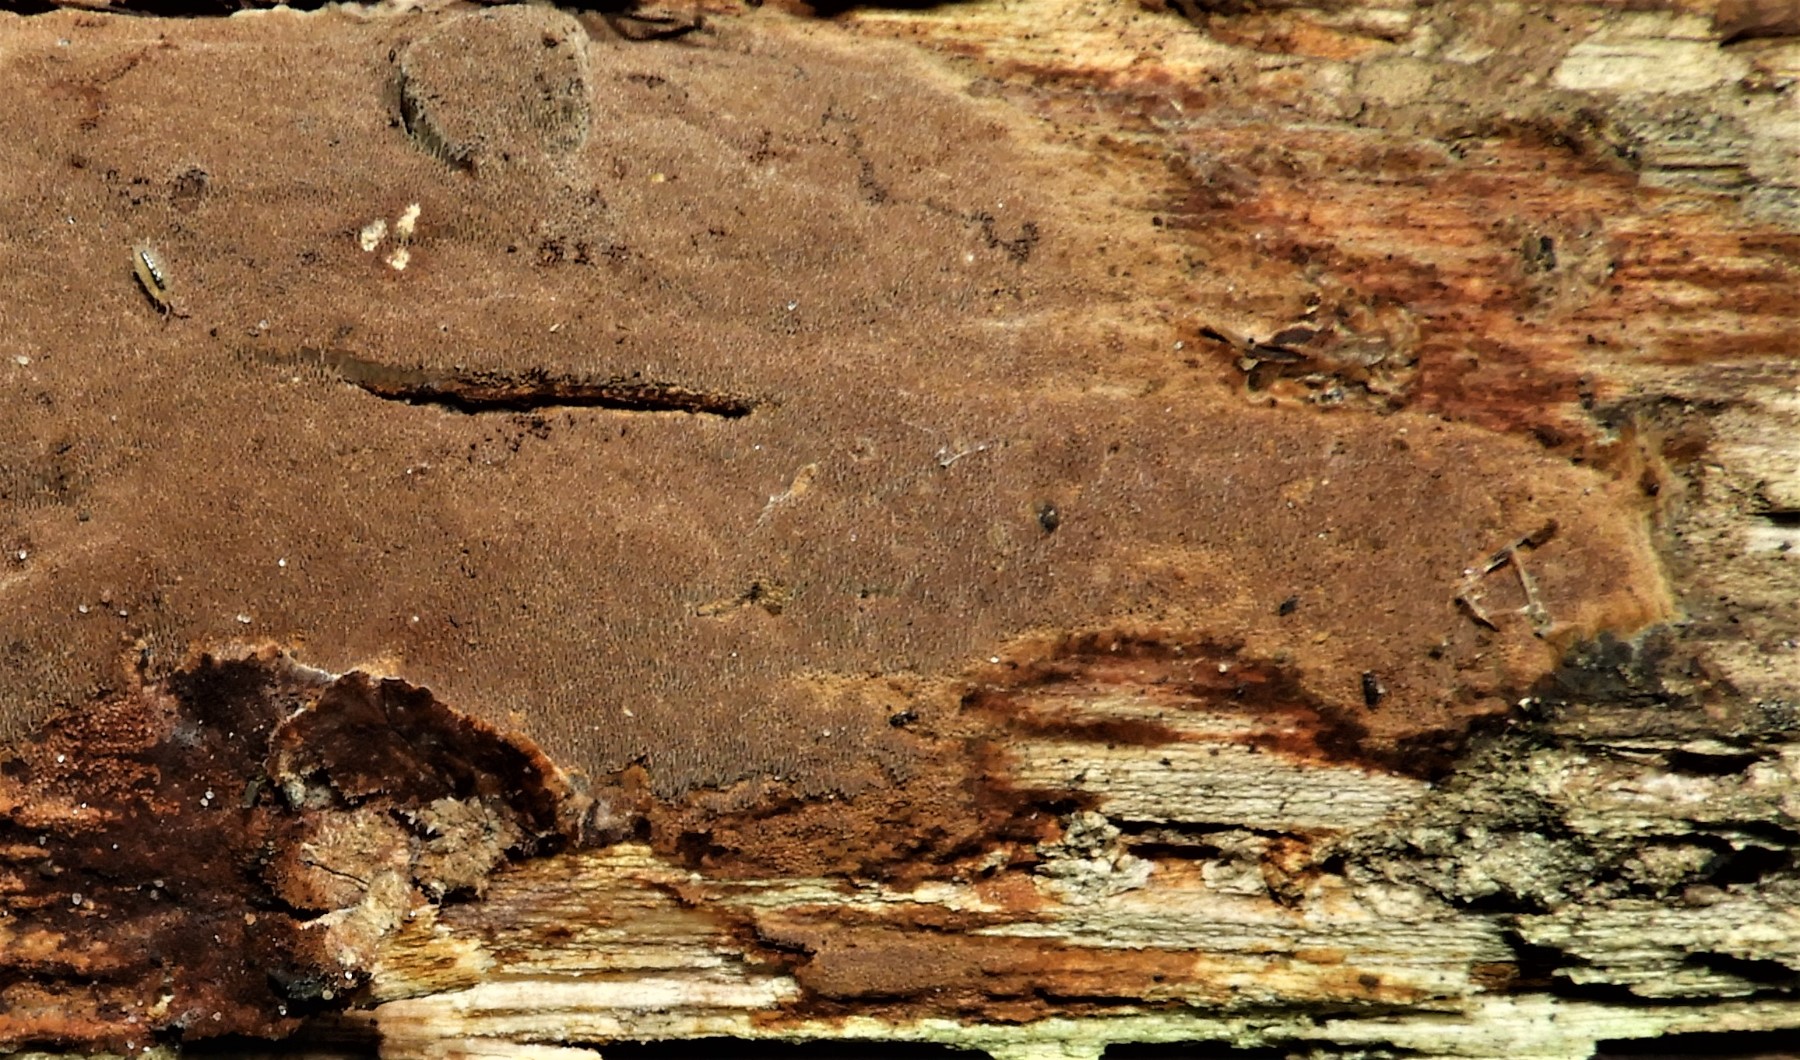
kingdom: Fungi
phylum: Basidiomycota
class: Agaricomycetes
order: Hymenochaetales
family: Hymenochaetaceae
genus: Fuscoporia
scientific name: Fuscoporia ferrea
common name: skorpe-ildporesvamp
